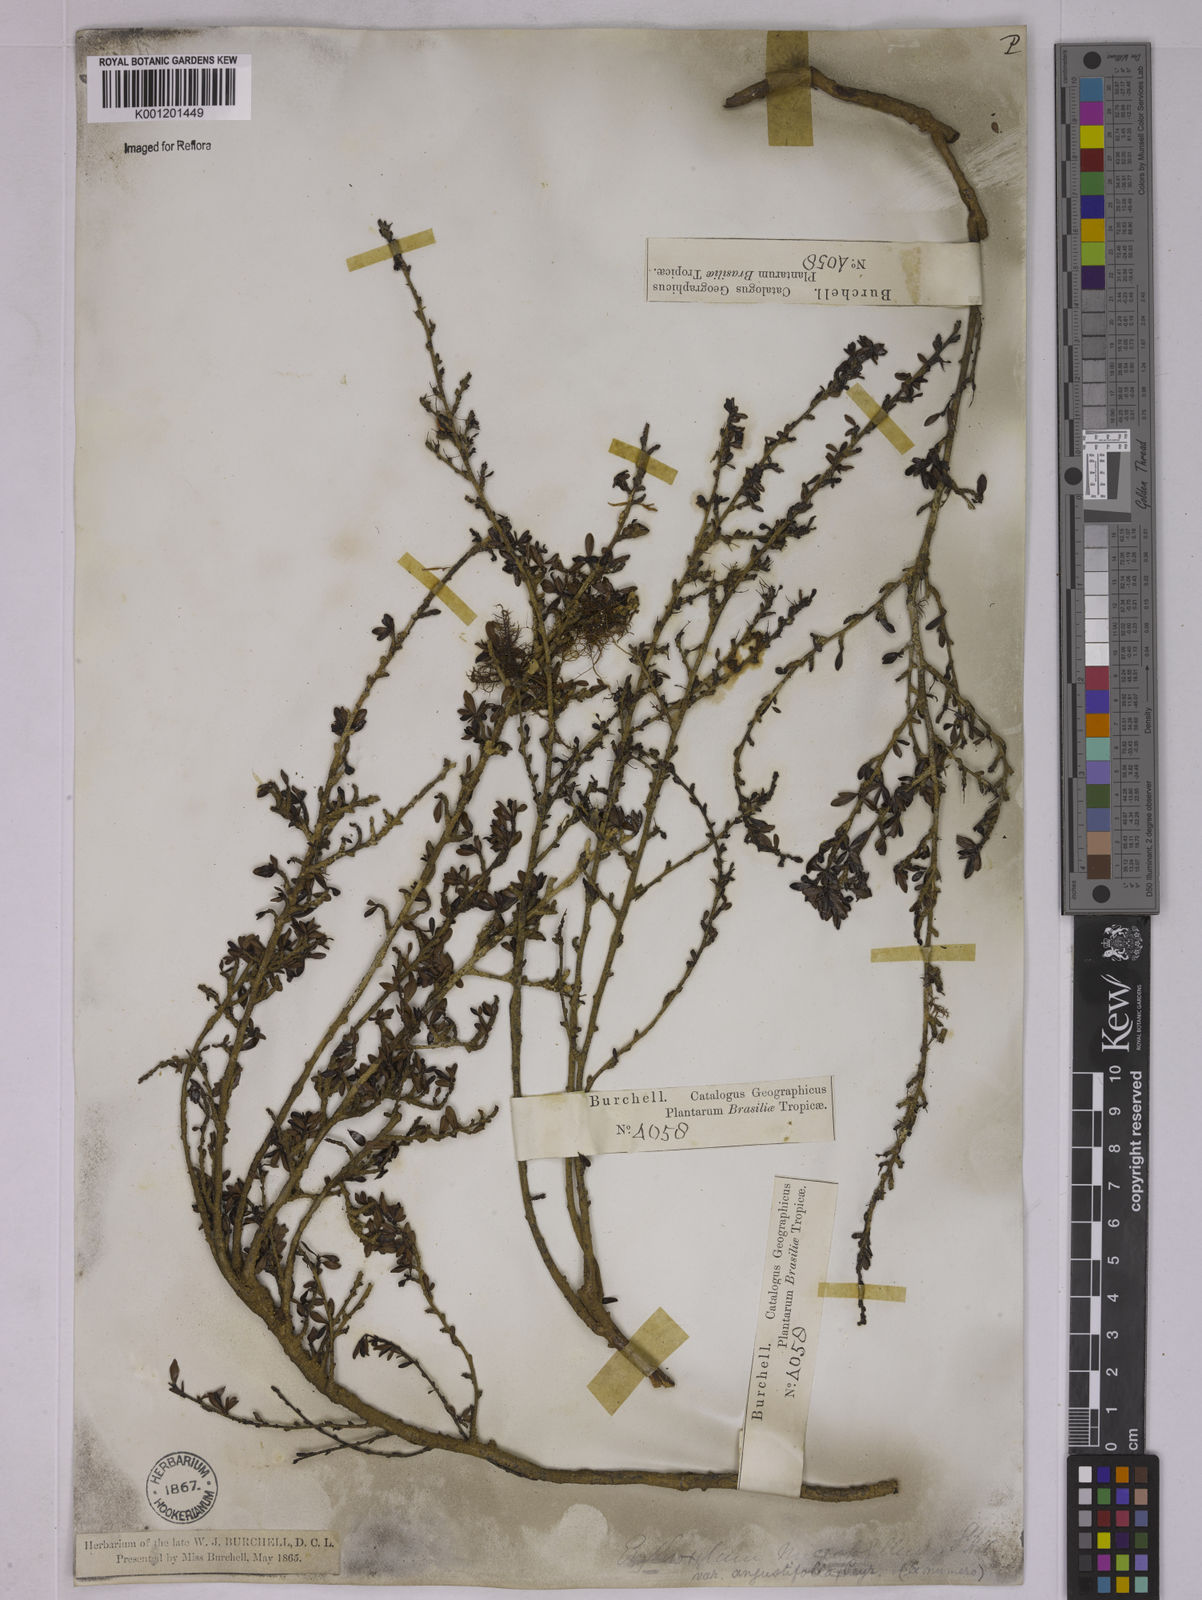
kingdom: Plantae
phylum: Tracheophyta
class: Magnoliopsida
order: Malpighiales
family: Erythroxylaceae
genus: Erythroxylum
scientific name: Erythroxylum microphyllum
